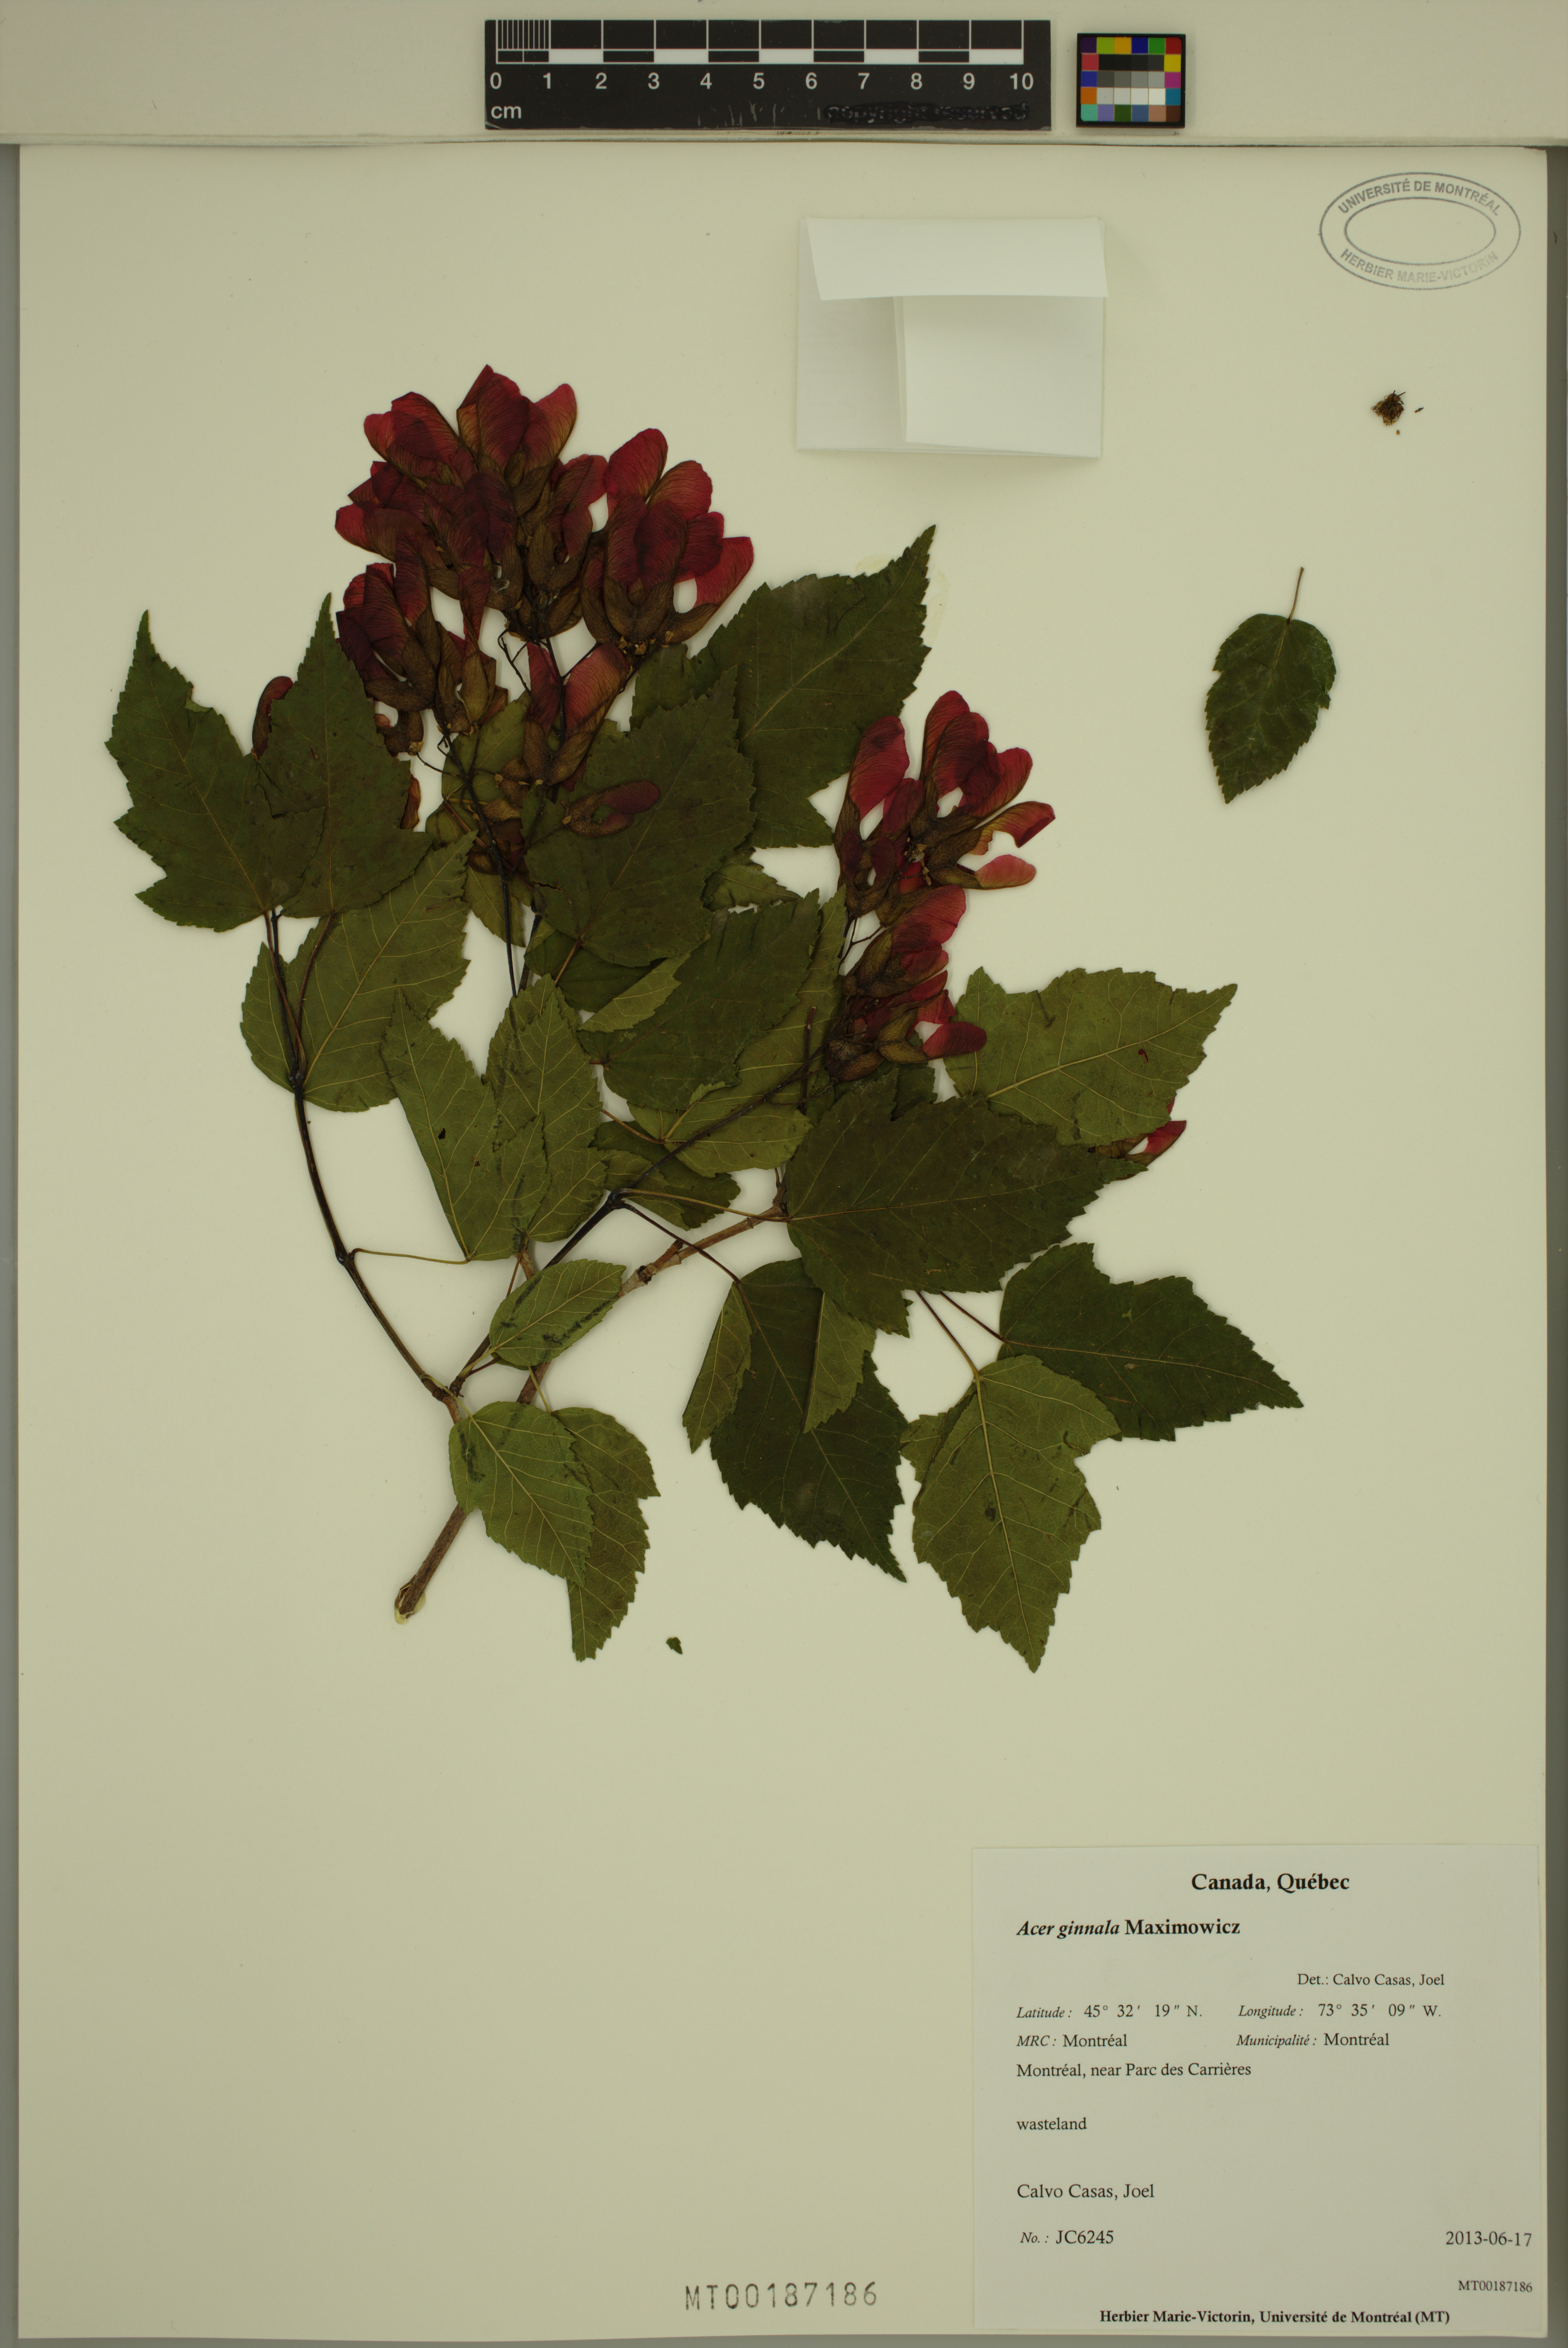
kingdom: Plantae
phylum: Tracheophyta
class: Magnoliopsida
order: Sapindales
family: Sapindaceae
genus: Acer
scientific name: Acer tataricum
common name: Tartar maple
